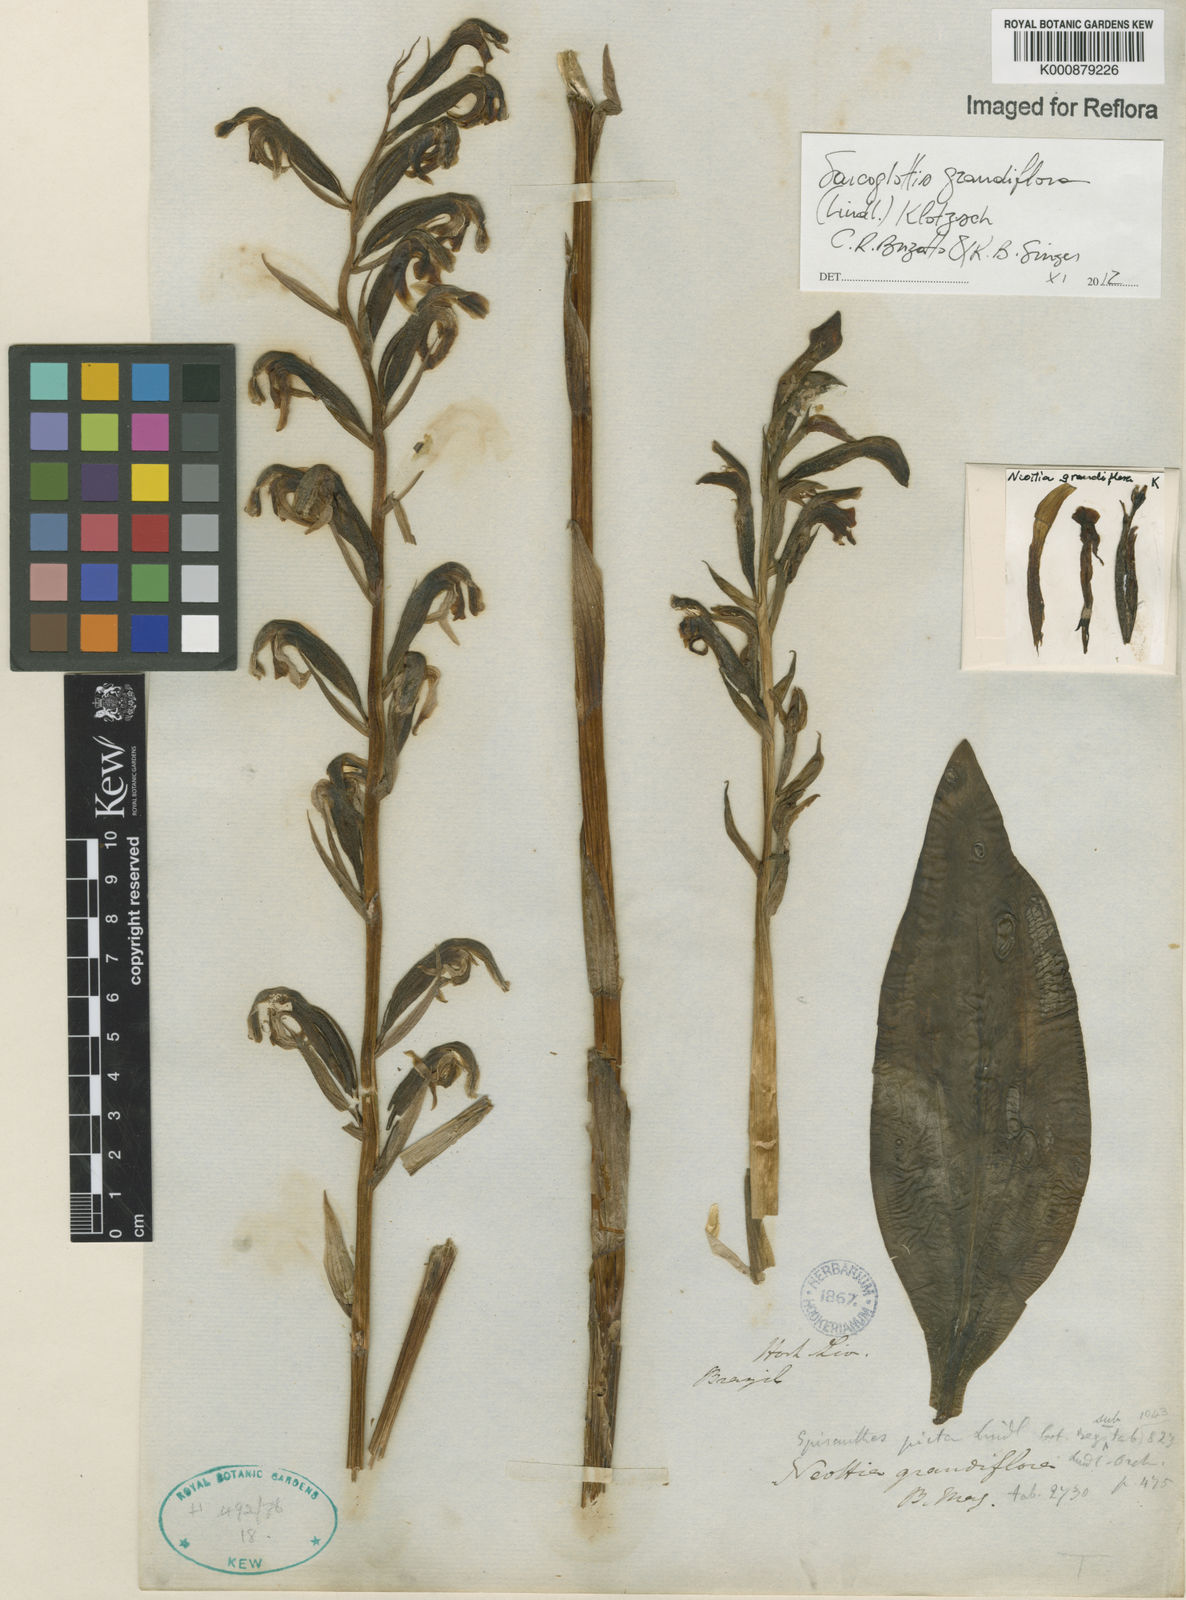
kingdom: Plantae
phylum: Tracheophyta
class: Liliopsida
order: Asparagales
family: Orchidaceae
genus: Sarcoglottis
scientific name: Sarcoglottis grandiflora
